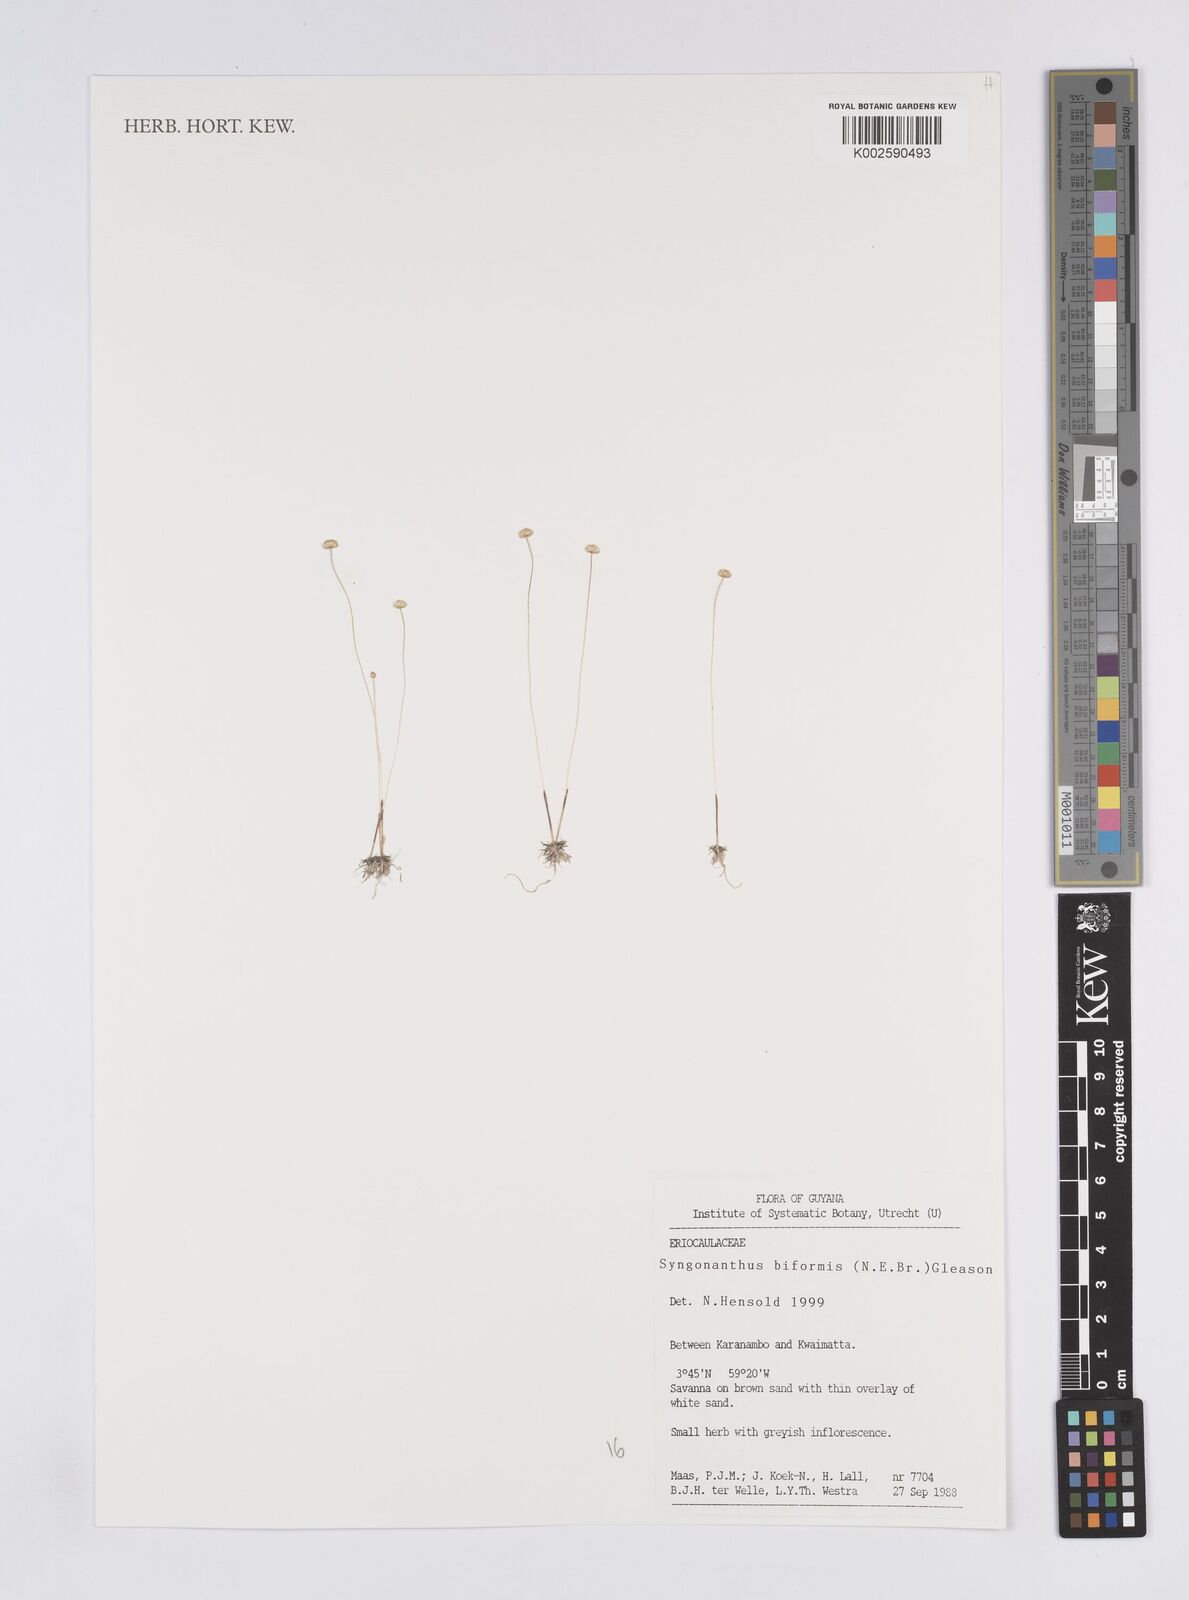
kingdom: Plantae
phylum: Tracheophyta
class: Liliopsida
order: Poales
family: Eriocaulaceae
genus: Syngonanthus
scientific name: Syngonanthus biformis
